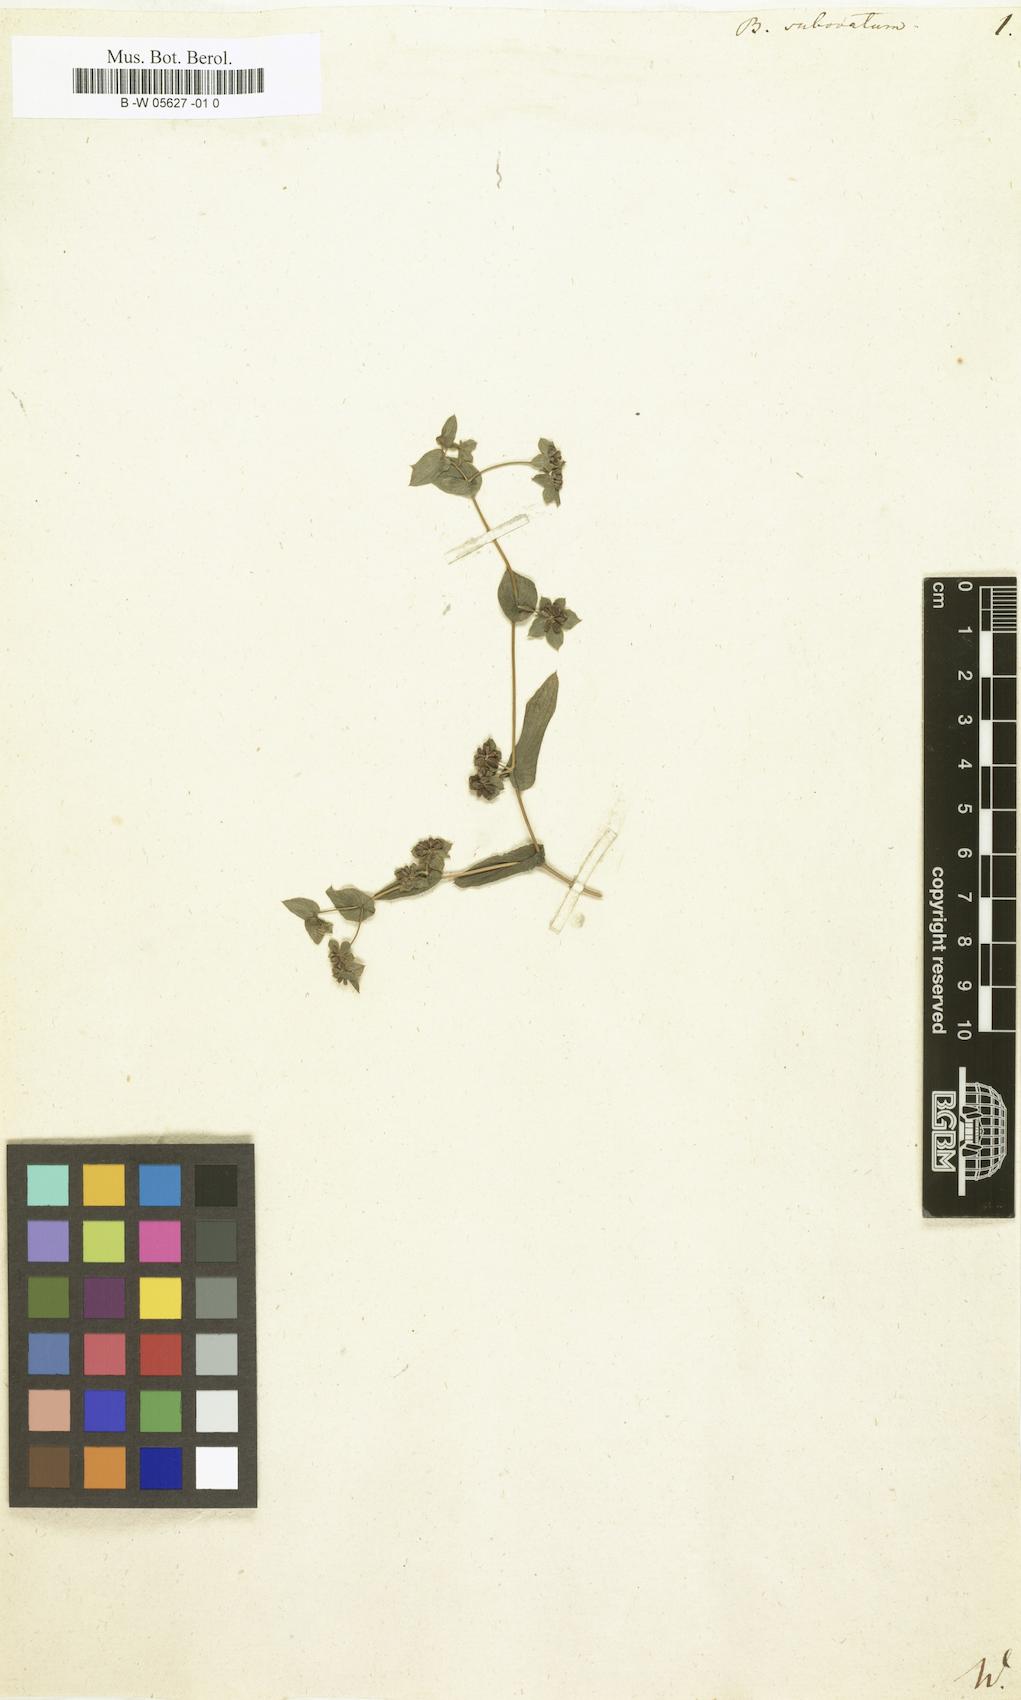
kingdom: Plantae
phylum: Tracheophyta
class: Magnoliopsida
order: Apiales
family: Apiaceae
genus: Bupleurum
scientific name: Bupleurum subovatum
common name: False thorow-wax
